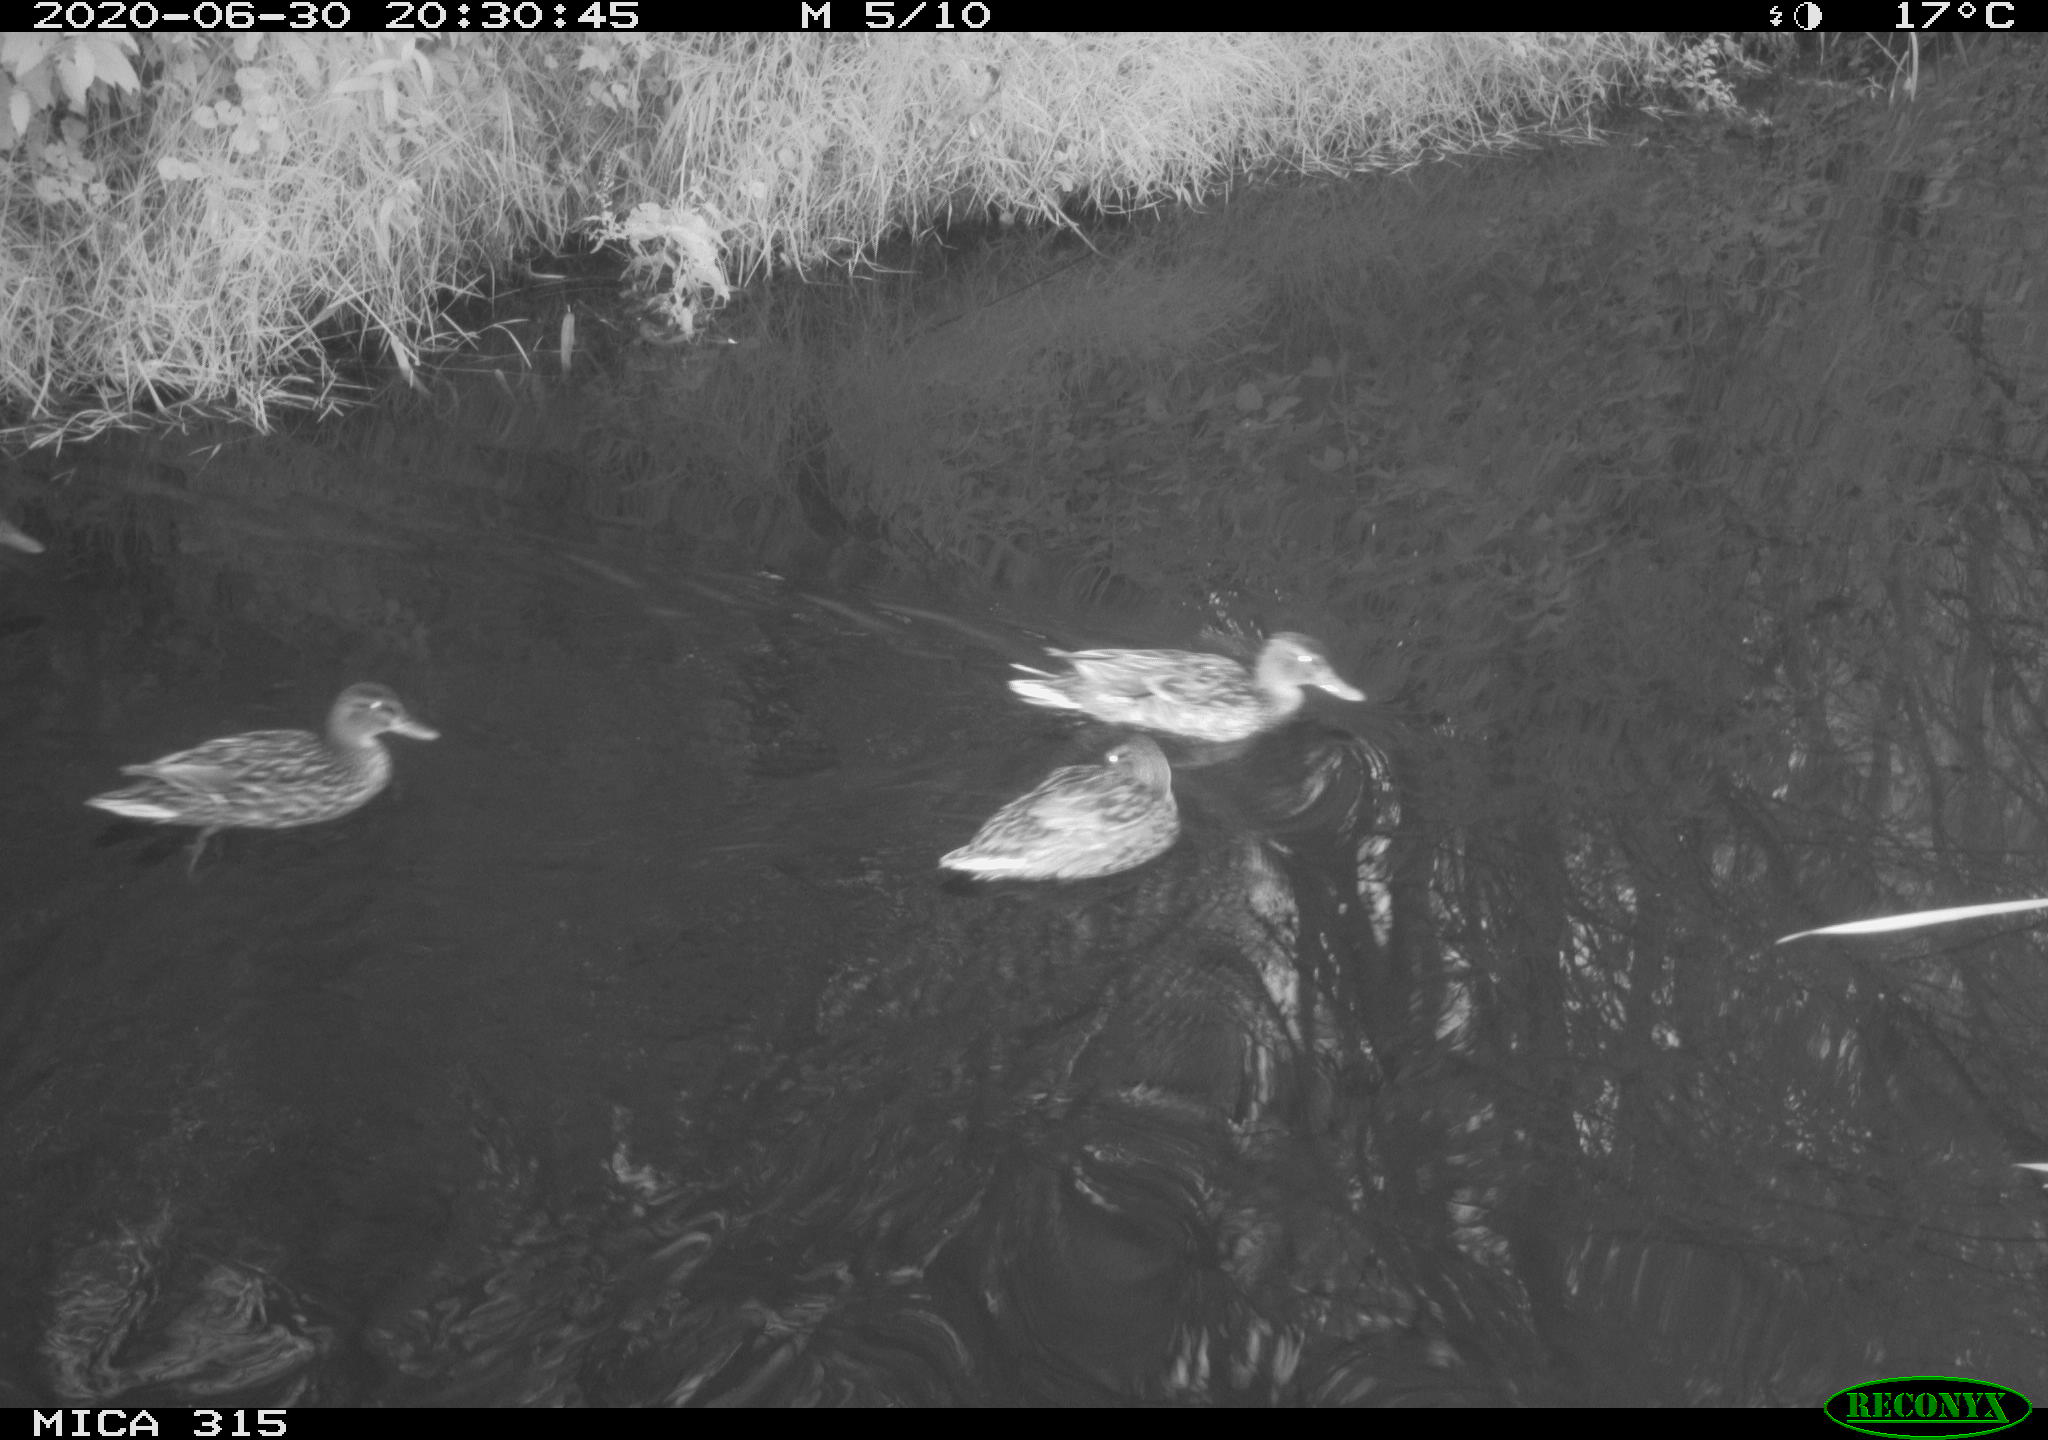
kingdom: Animalia
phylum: Chordata
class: Aves
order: Anseriformes
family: Anatidae
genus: Anas
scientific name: Anas platyrhynchos
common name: Mallard
